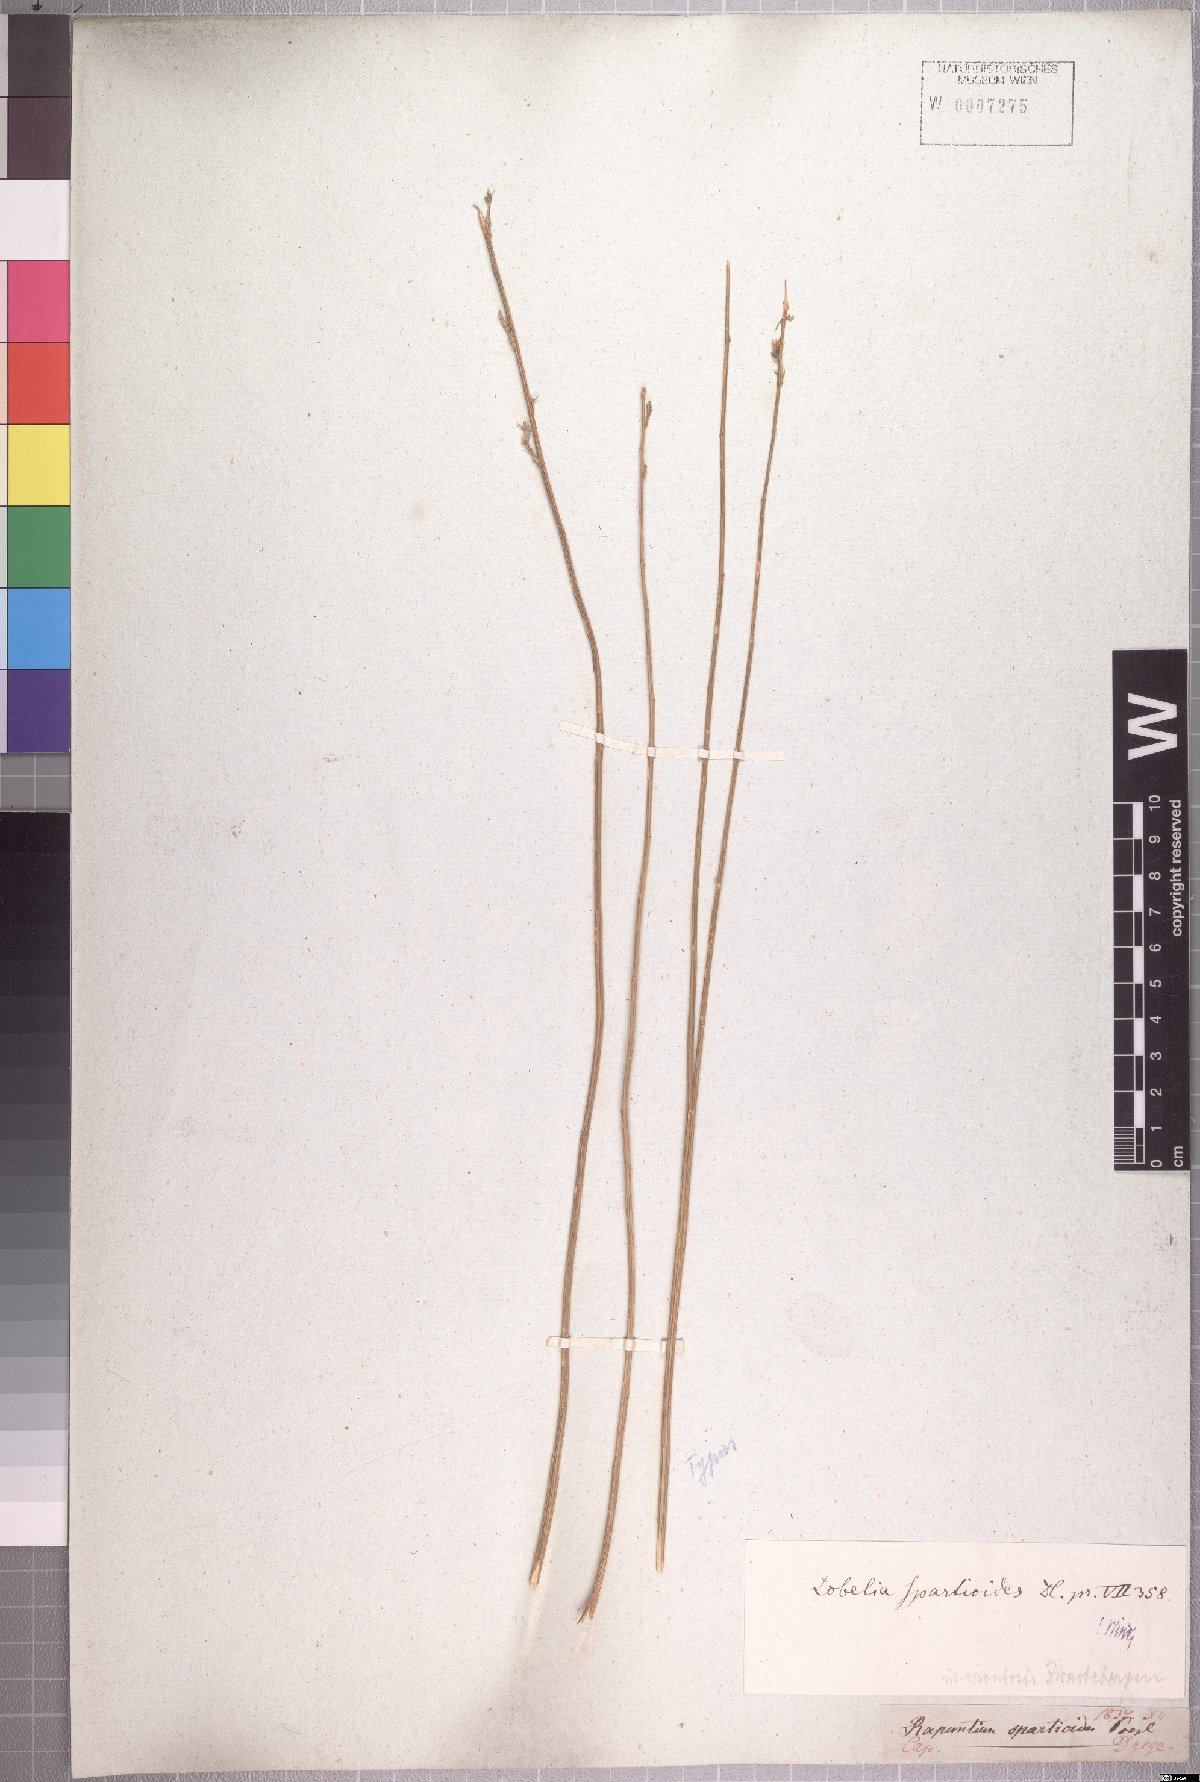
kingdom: Plantae
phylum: Tracheophyta
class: Magnoliopsida
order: Asterales
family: Campanulaceae
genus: Lobelia
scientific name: Lobelia linearis
